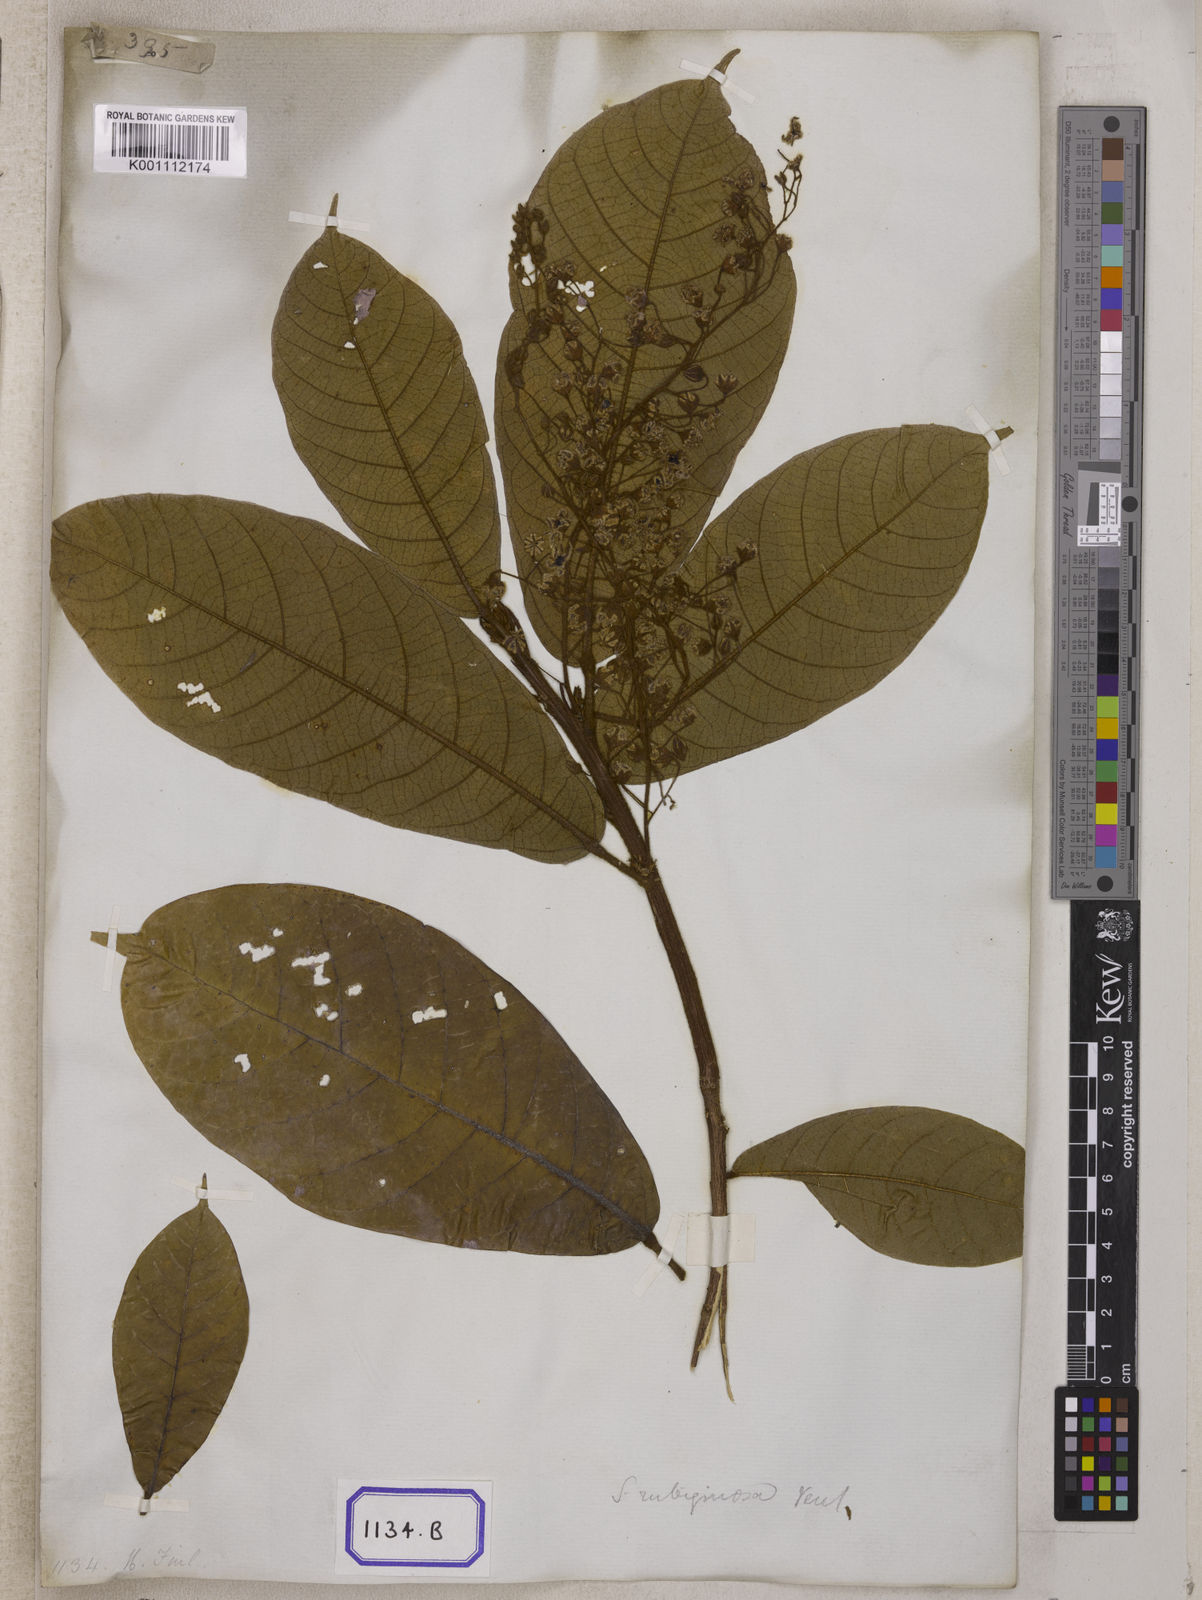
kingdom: Plantae
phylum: Tracheophyta
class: Magnoliopsida
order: Malvales
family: Malvaceae
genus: Sterculia
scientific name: Sterculia rubiginosa
